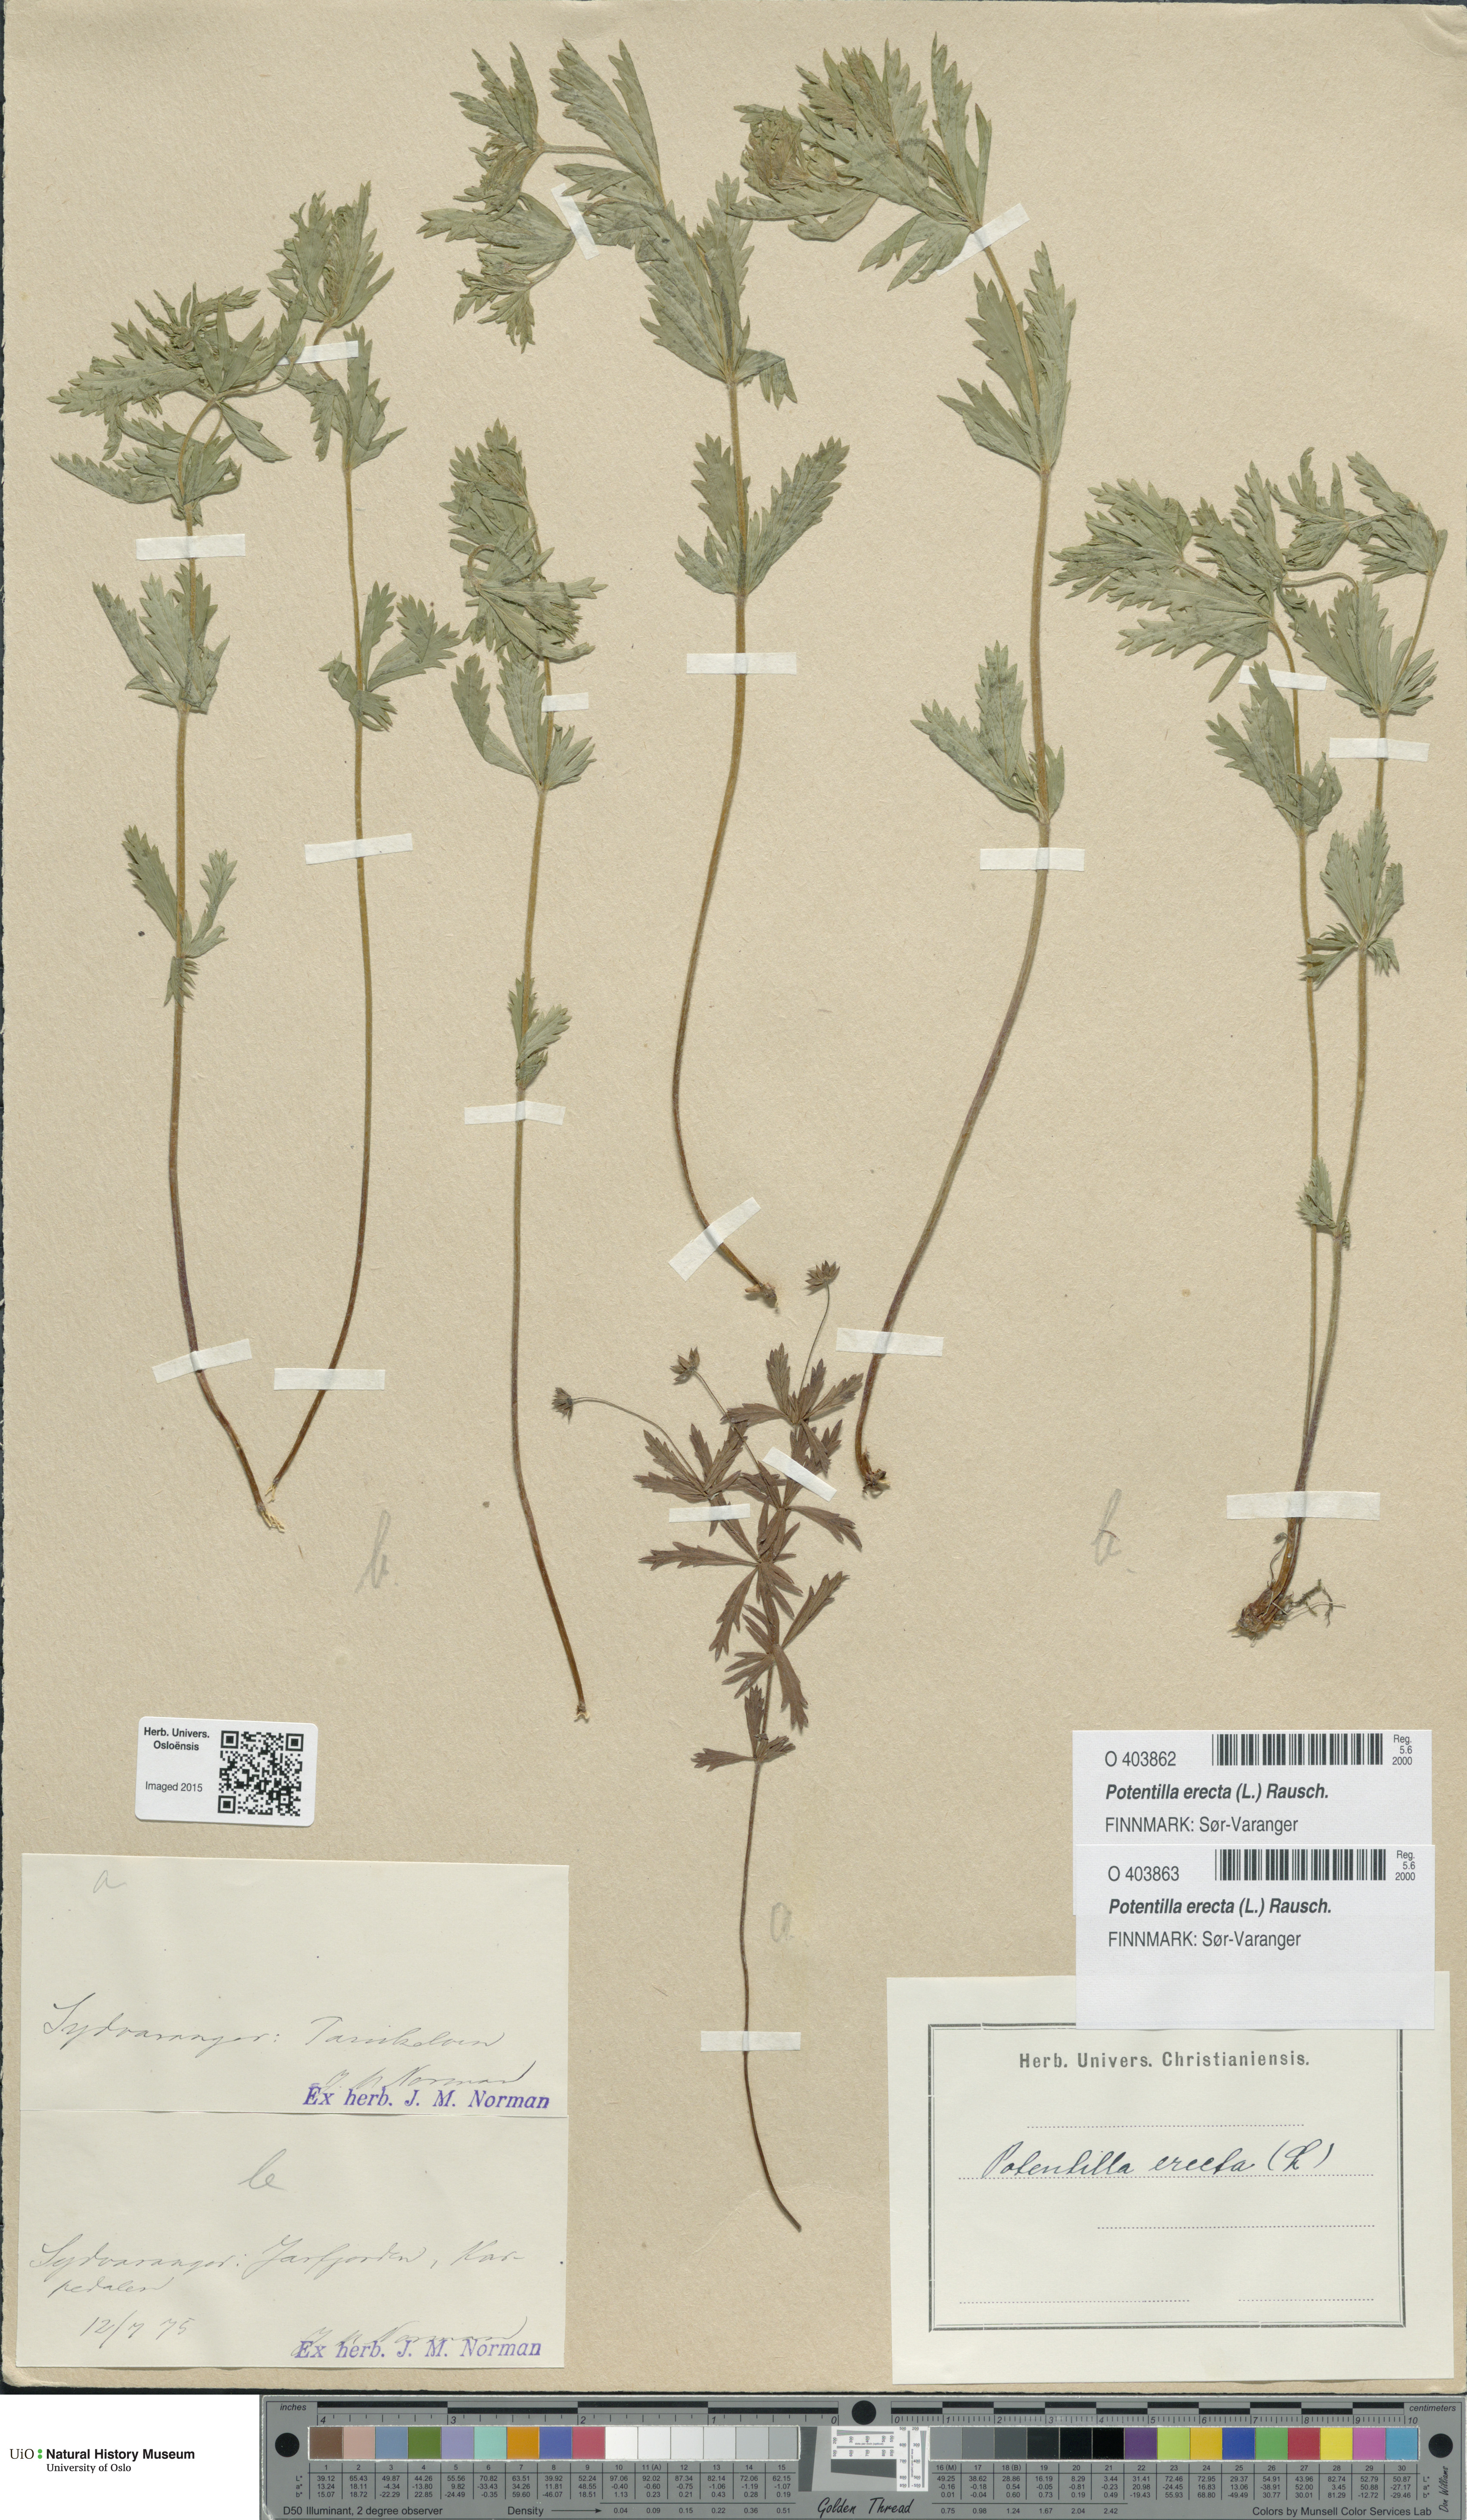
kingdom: Plantae
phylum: Tracheophyta
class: Magnoliopsida
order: Rosales
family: Rosaceae
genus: Potentilla
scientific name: Potentilla erecta
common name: Tormentil
